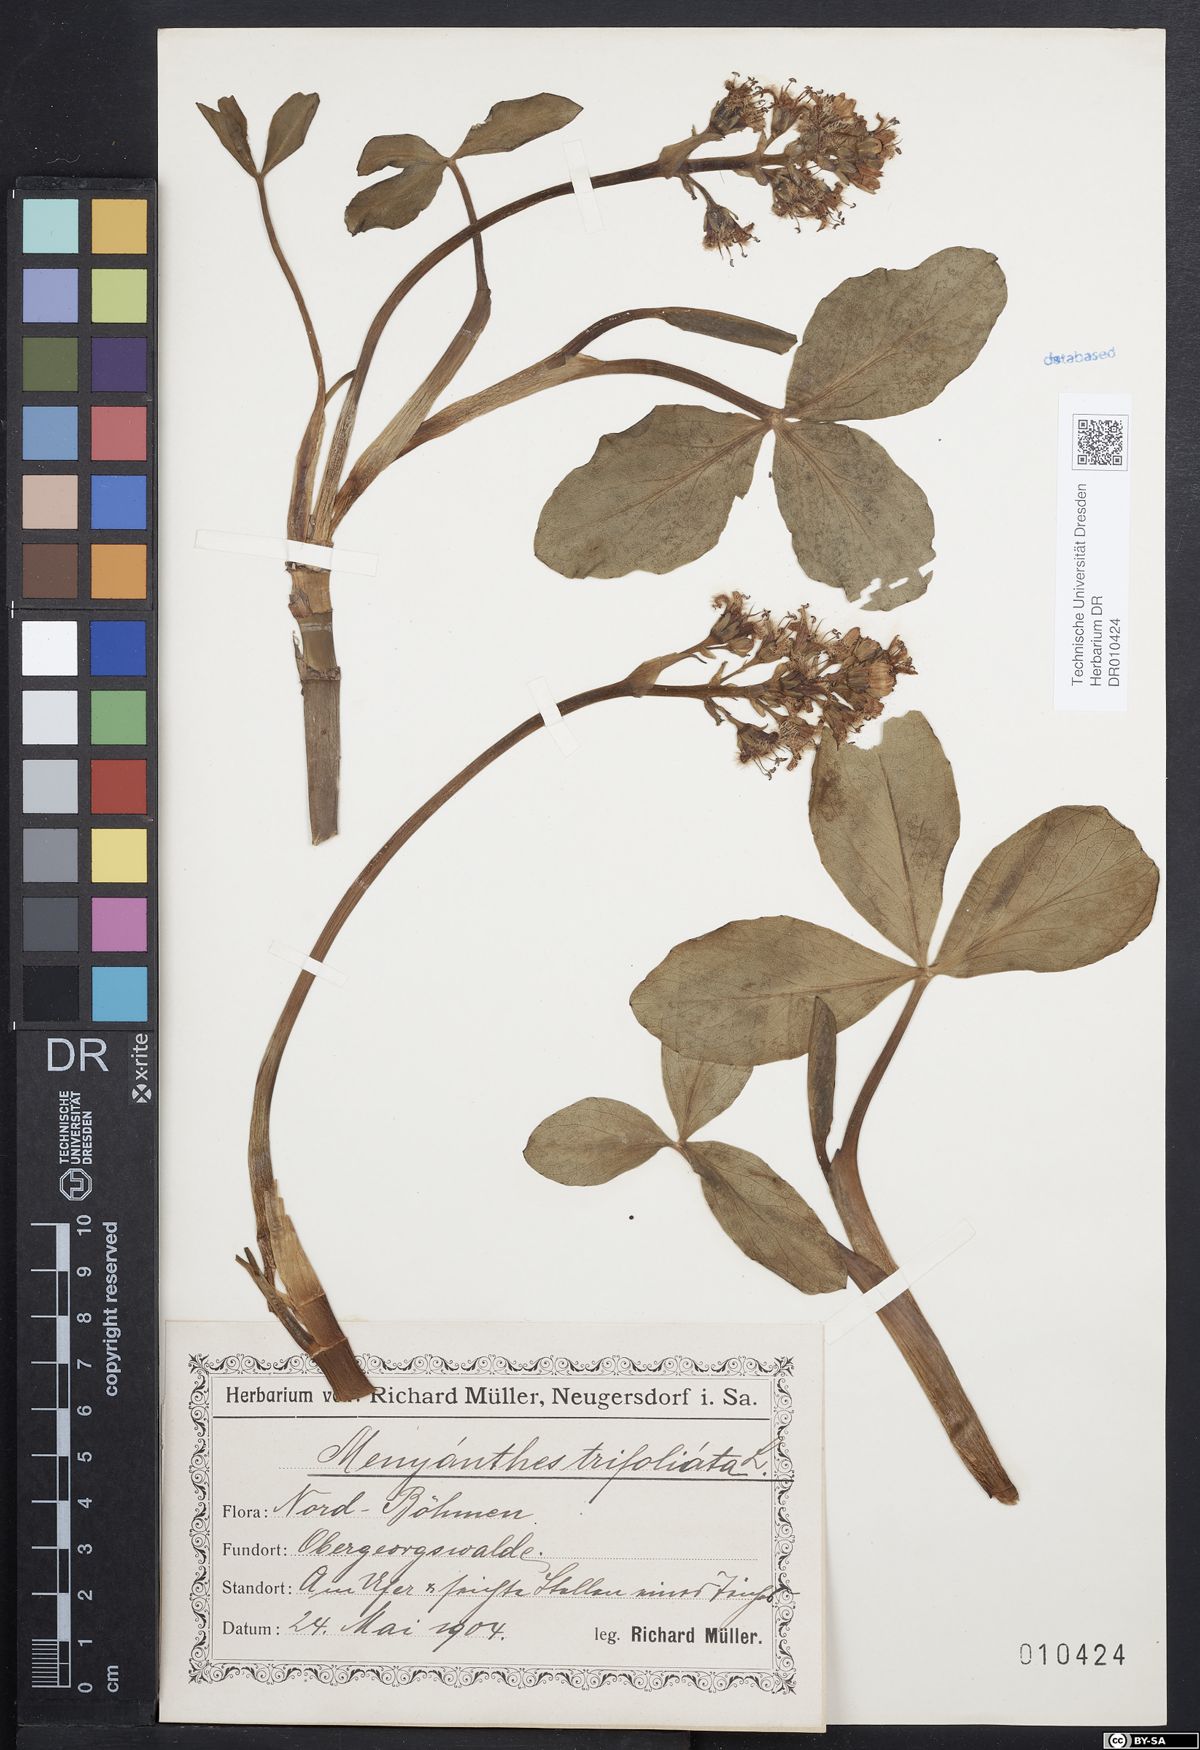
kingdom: Plantae
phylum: Tracheophyta
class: Magnoliopsida
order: Asterales
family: Menyanthaceae
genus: Menyanthes
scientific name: Menyanthes trifoliata
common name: Bogbean
